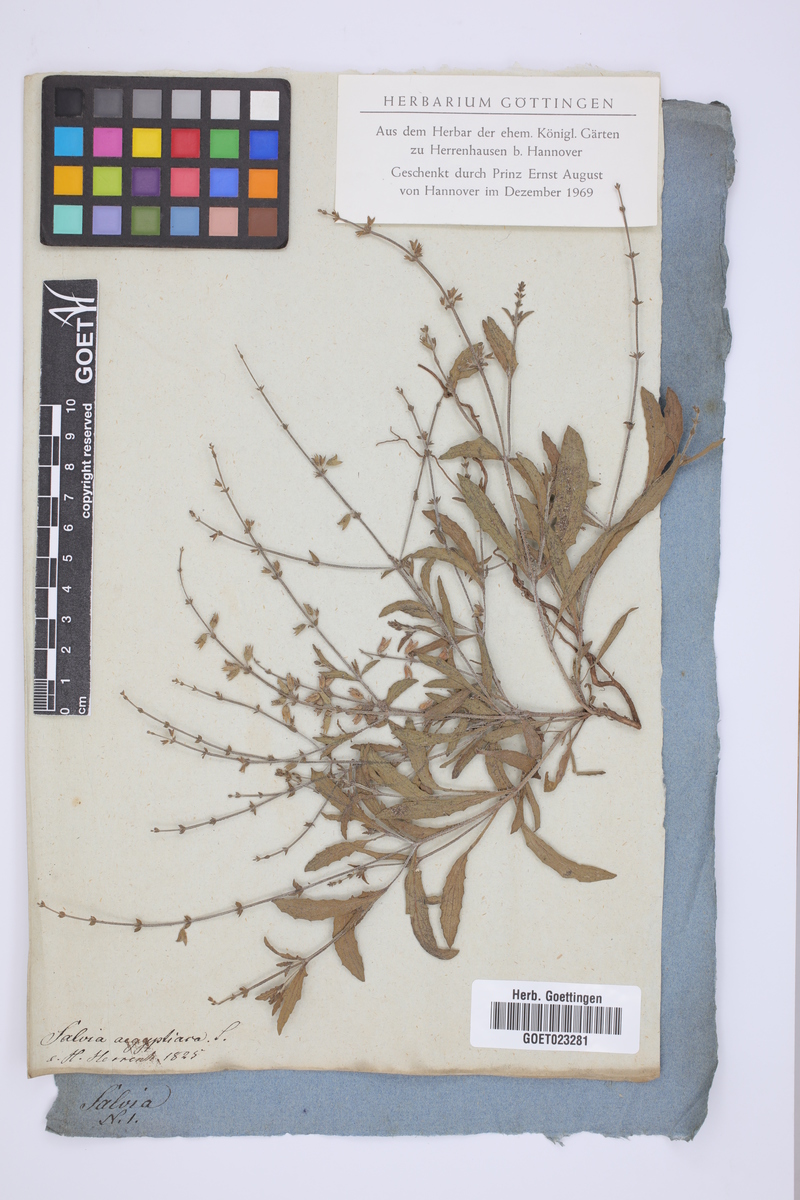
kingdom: Plantae
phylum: Tracheophyta
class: Magnoliopsida
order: Lamiales
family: Lamiaceae
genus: Salvia
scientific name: Salvia aegyptiaca
